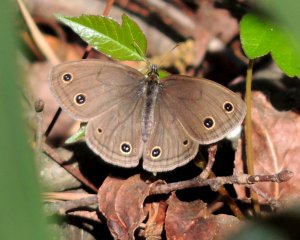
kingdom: Animalia
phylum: Arthropoda
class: Insecta
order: Lepidoptera
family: Nymphalidae
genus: Euptychia
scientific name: Euptychia cymela
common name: Little Wood Satyr
